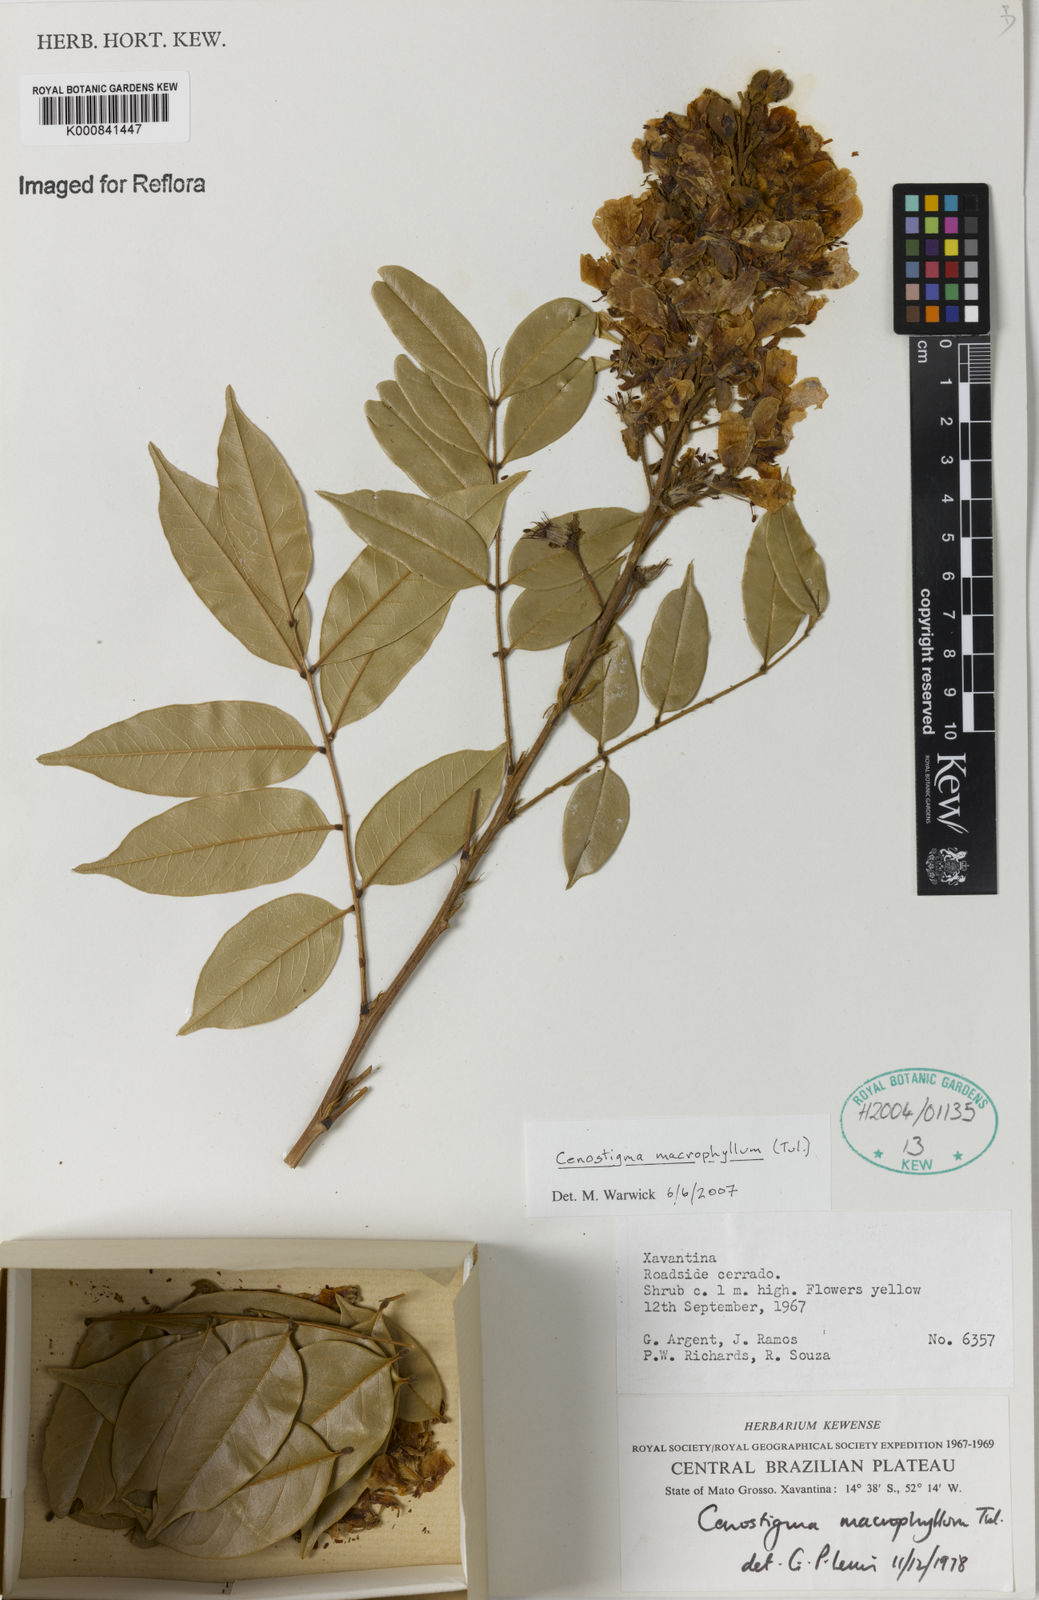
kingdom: Plantae
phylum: Tracheophyta
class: Magnoliopsida
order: Fabales
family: Fabaceae
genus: Cenostigma
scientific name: Cenostigma macrophyllum
